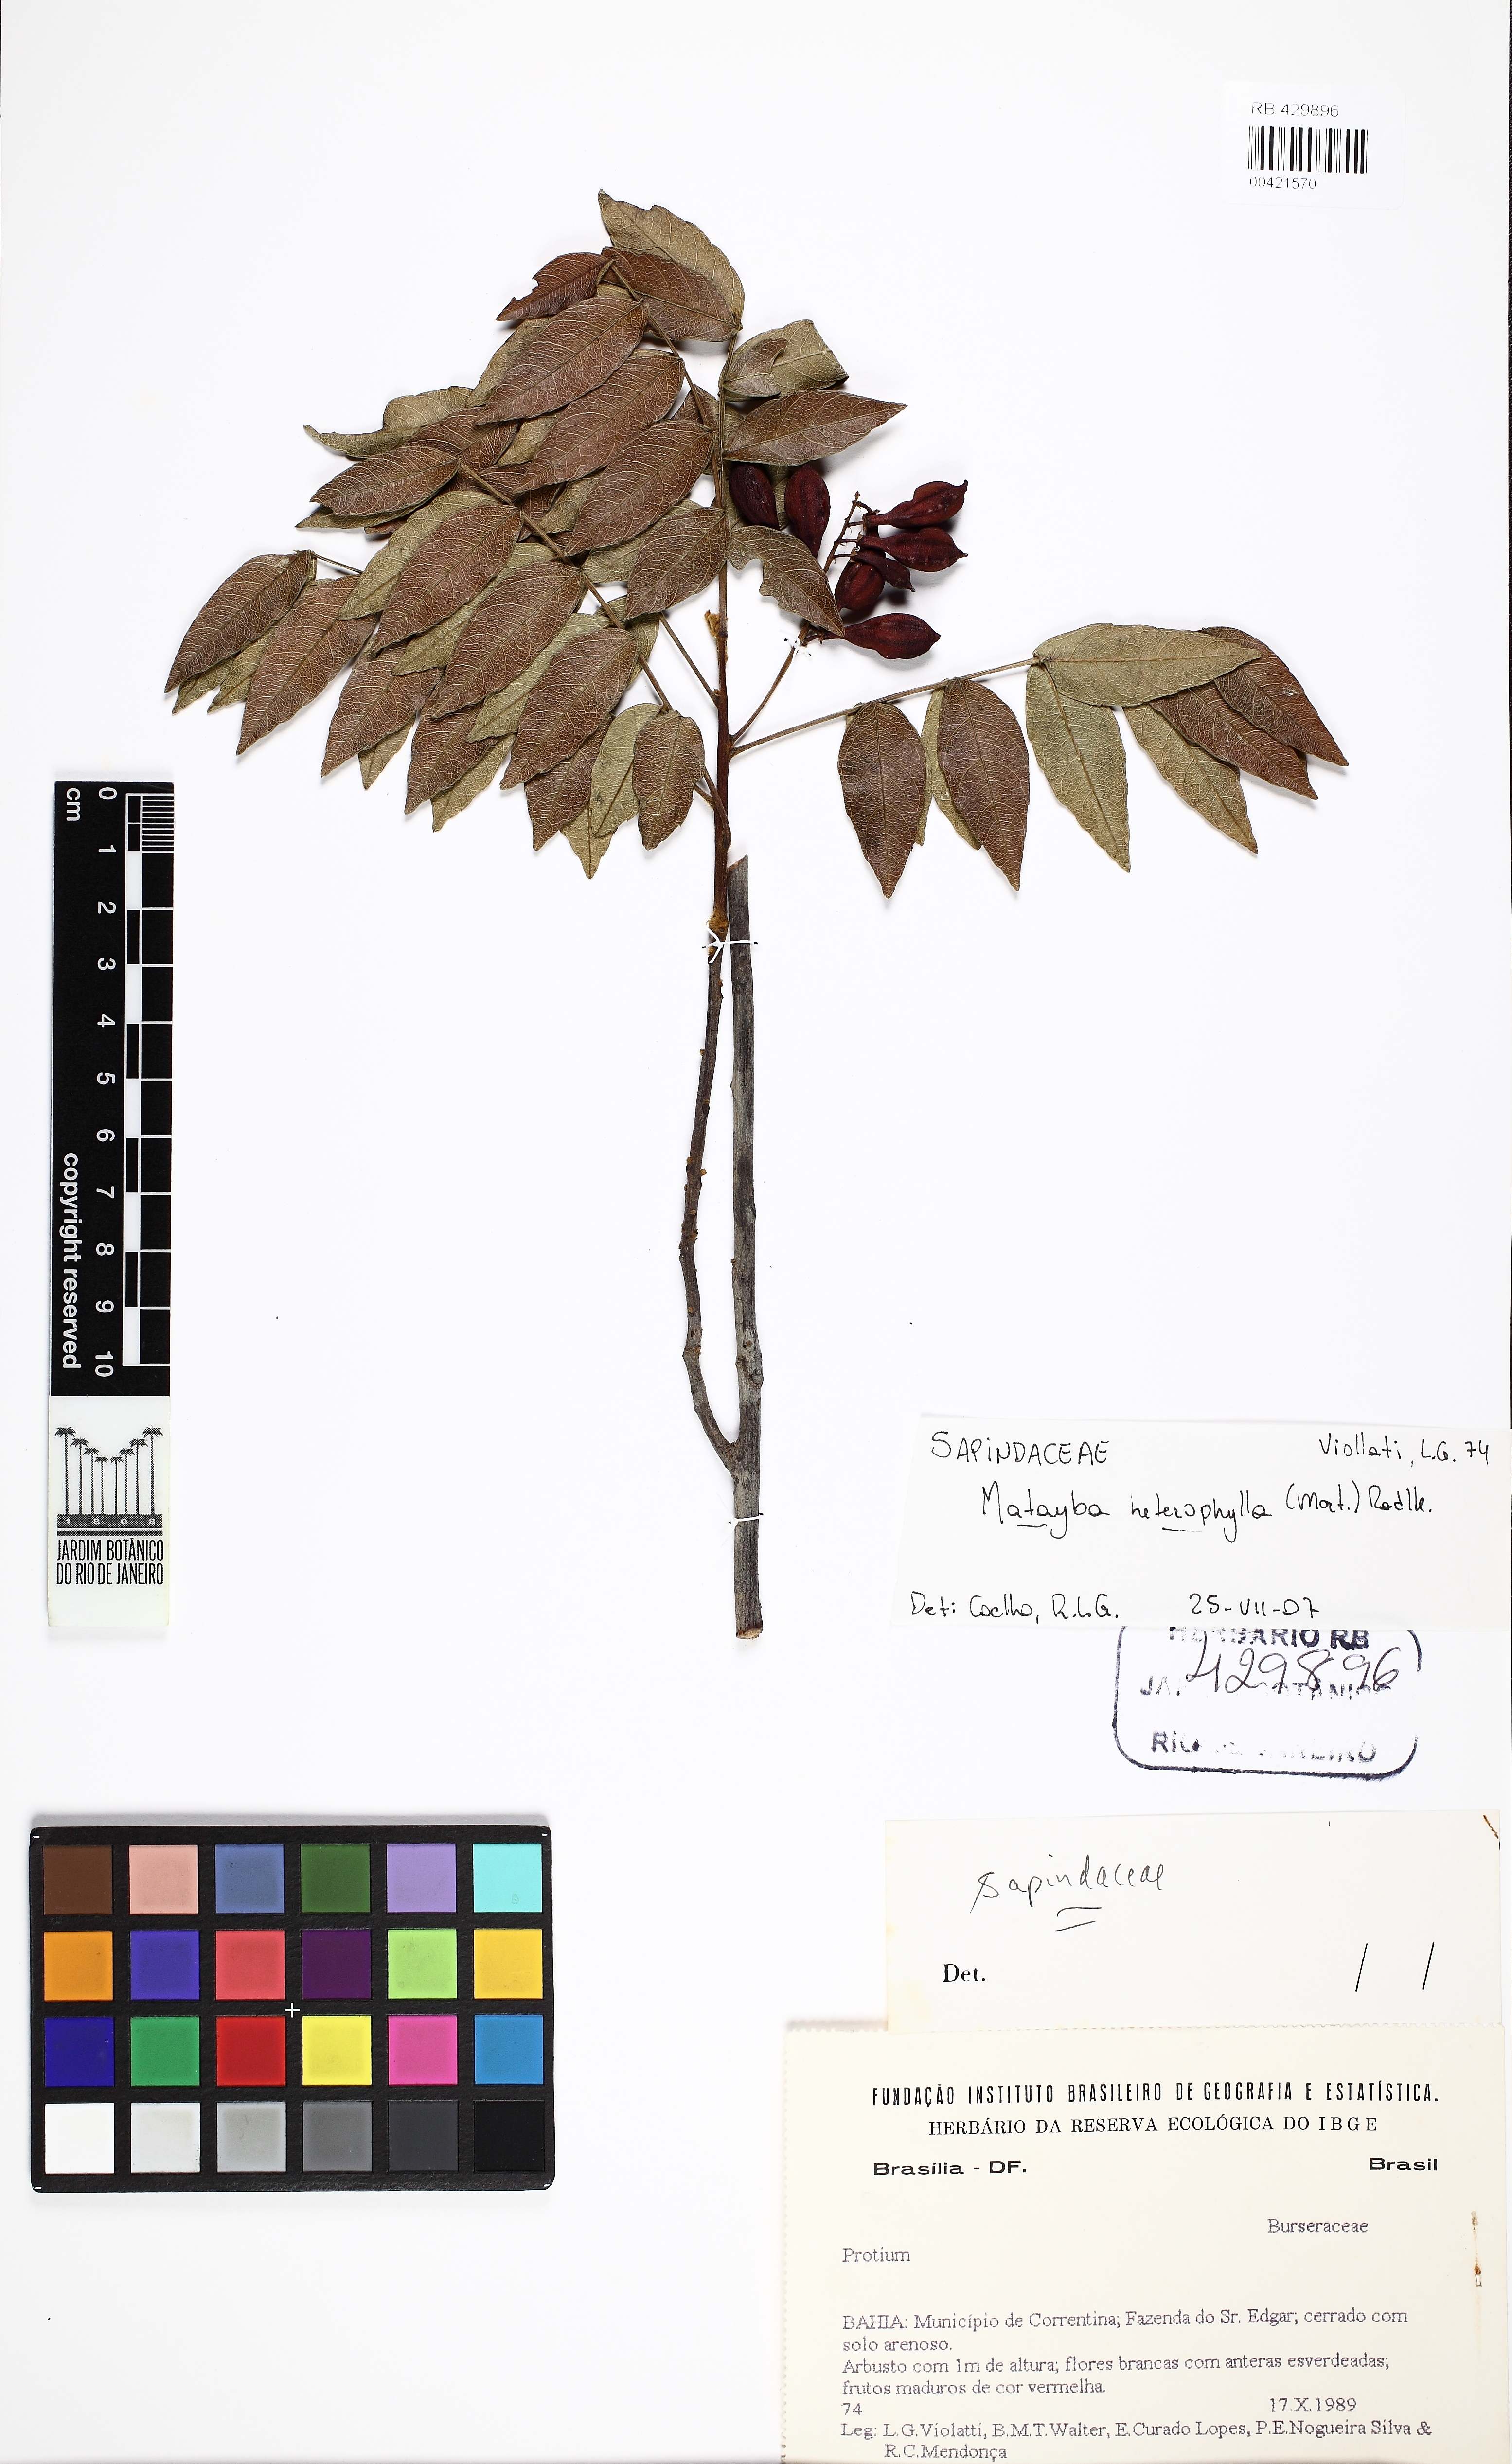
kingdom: Plantae
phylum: Tracheophyta
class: Magnoliopsida
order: Sapindales
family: Sapindaceae
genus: Matayba
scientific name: Matayba heterophylla
